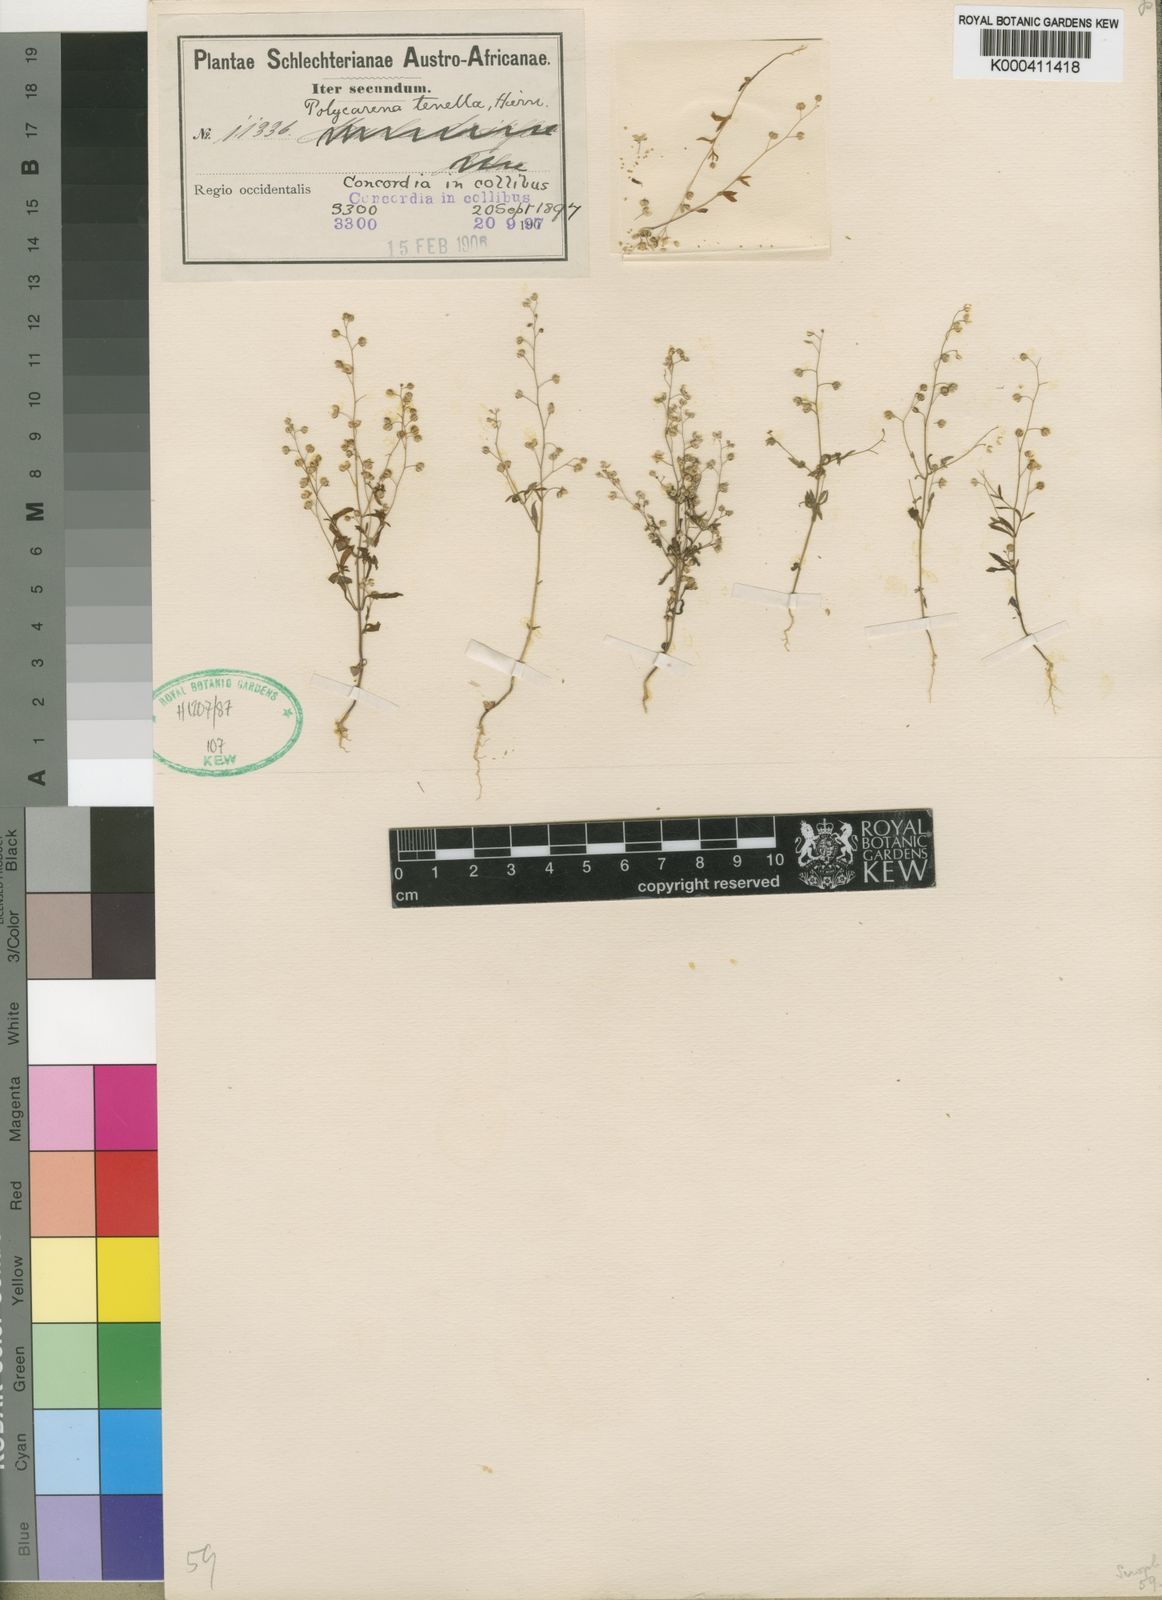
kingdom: Plantae
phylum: Tracheophyta
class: Magnoliopsida
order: Lamiales
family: Scrophulariaceae
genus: Polycarena
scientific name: Polycarena tenella
